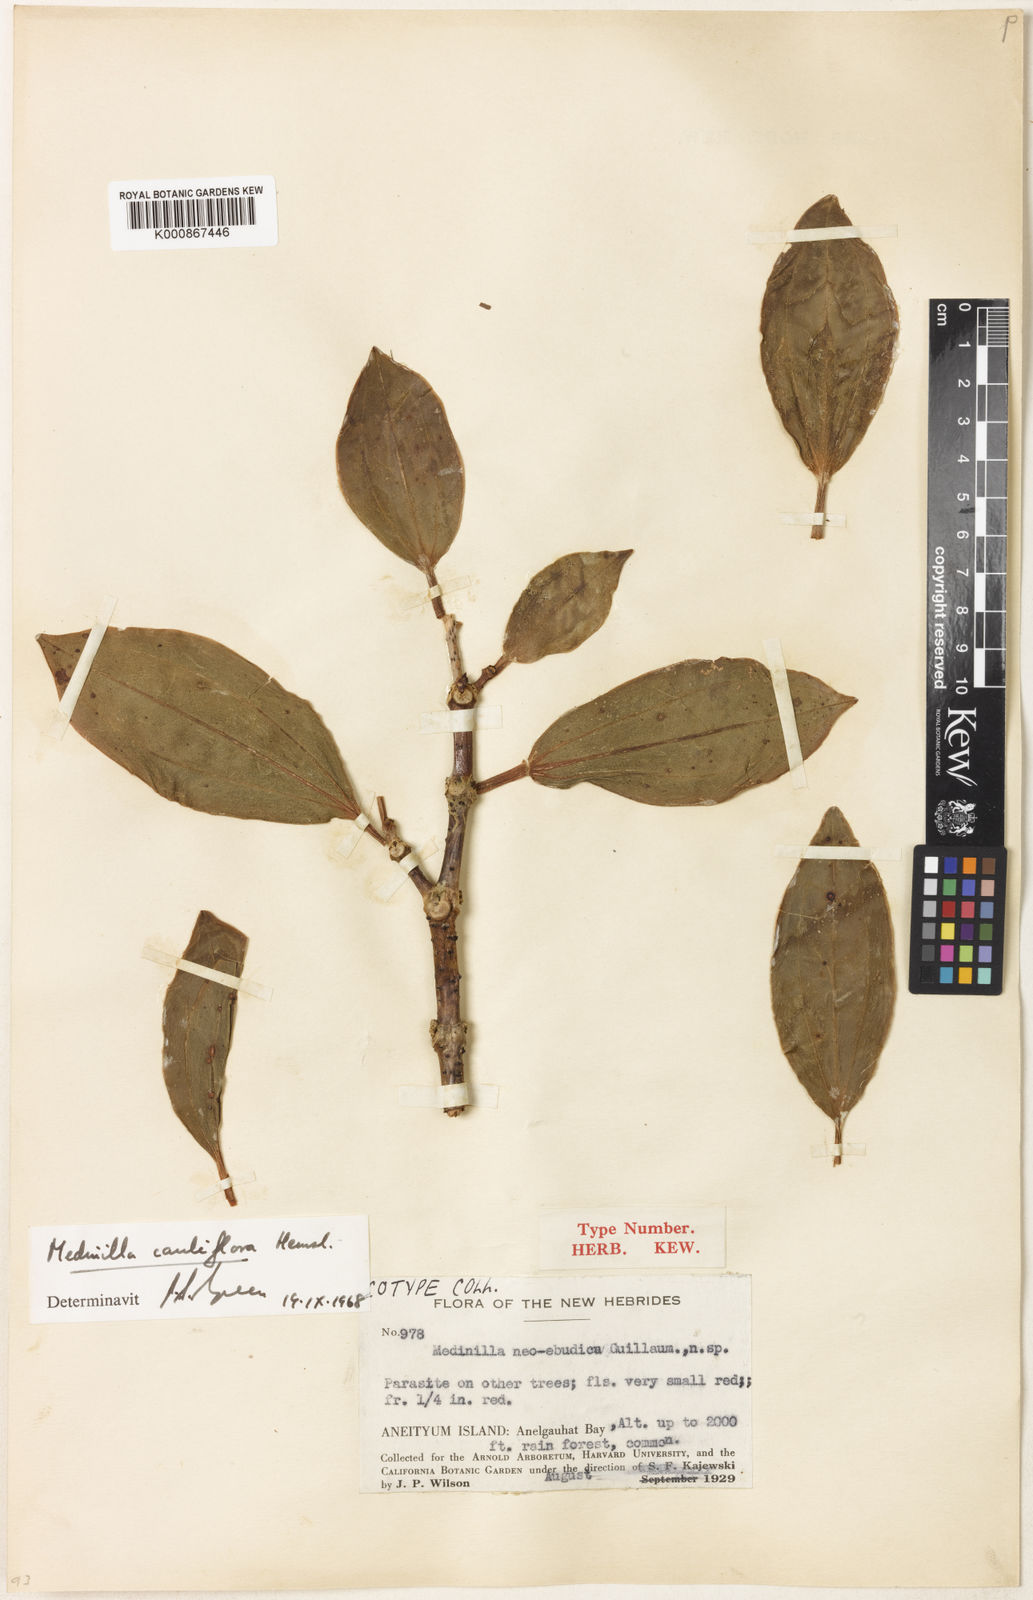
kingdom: Plantae
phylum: Tracheophyta
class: Magnoliopsida
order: Myrtales
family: Melastomataceae
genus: Medinilla
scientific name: Medinilla cauliflora
